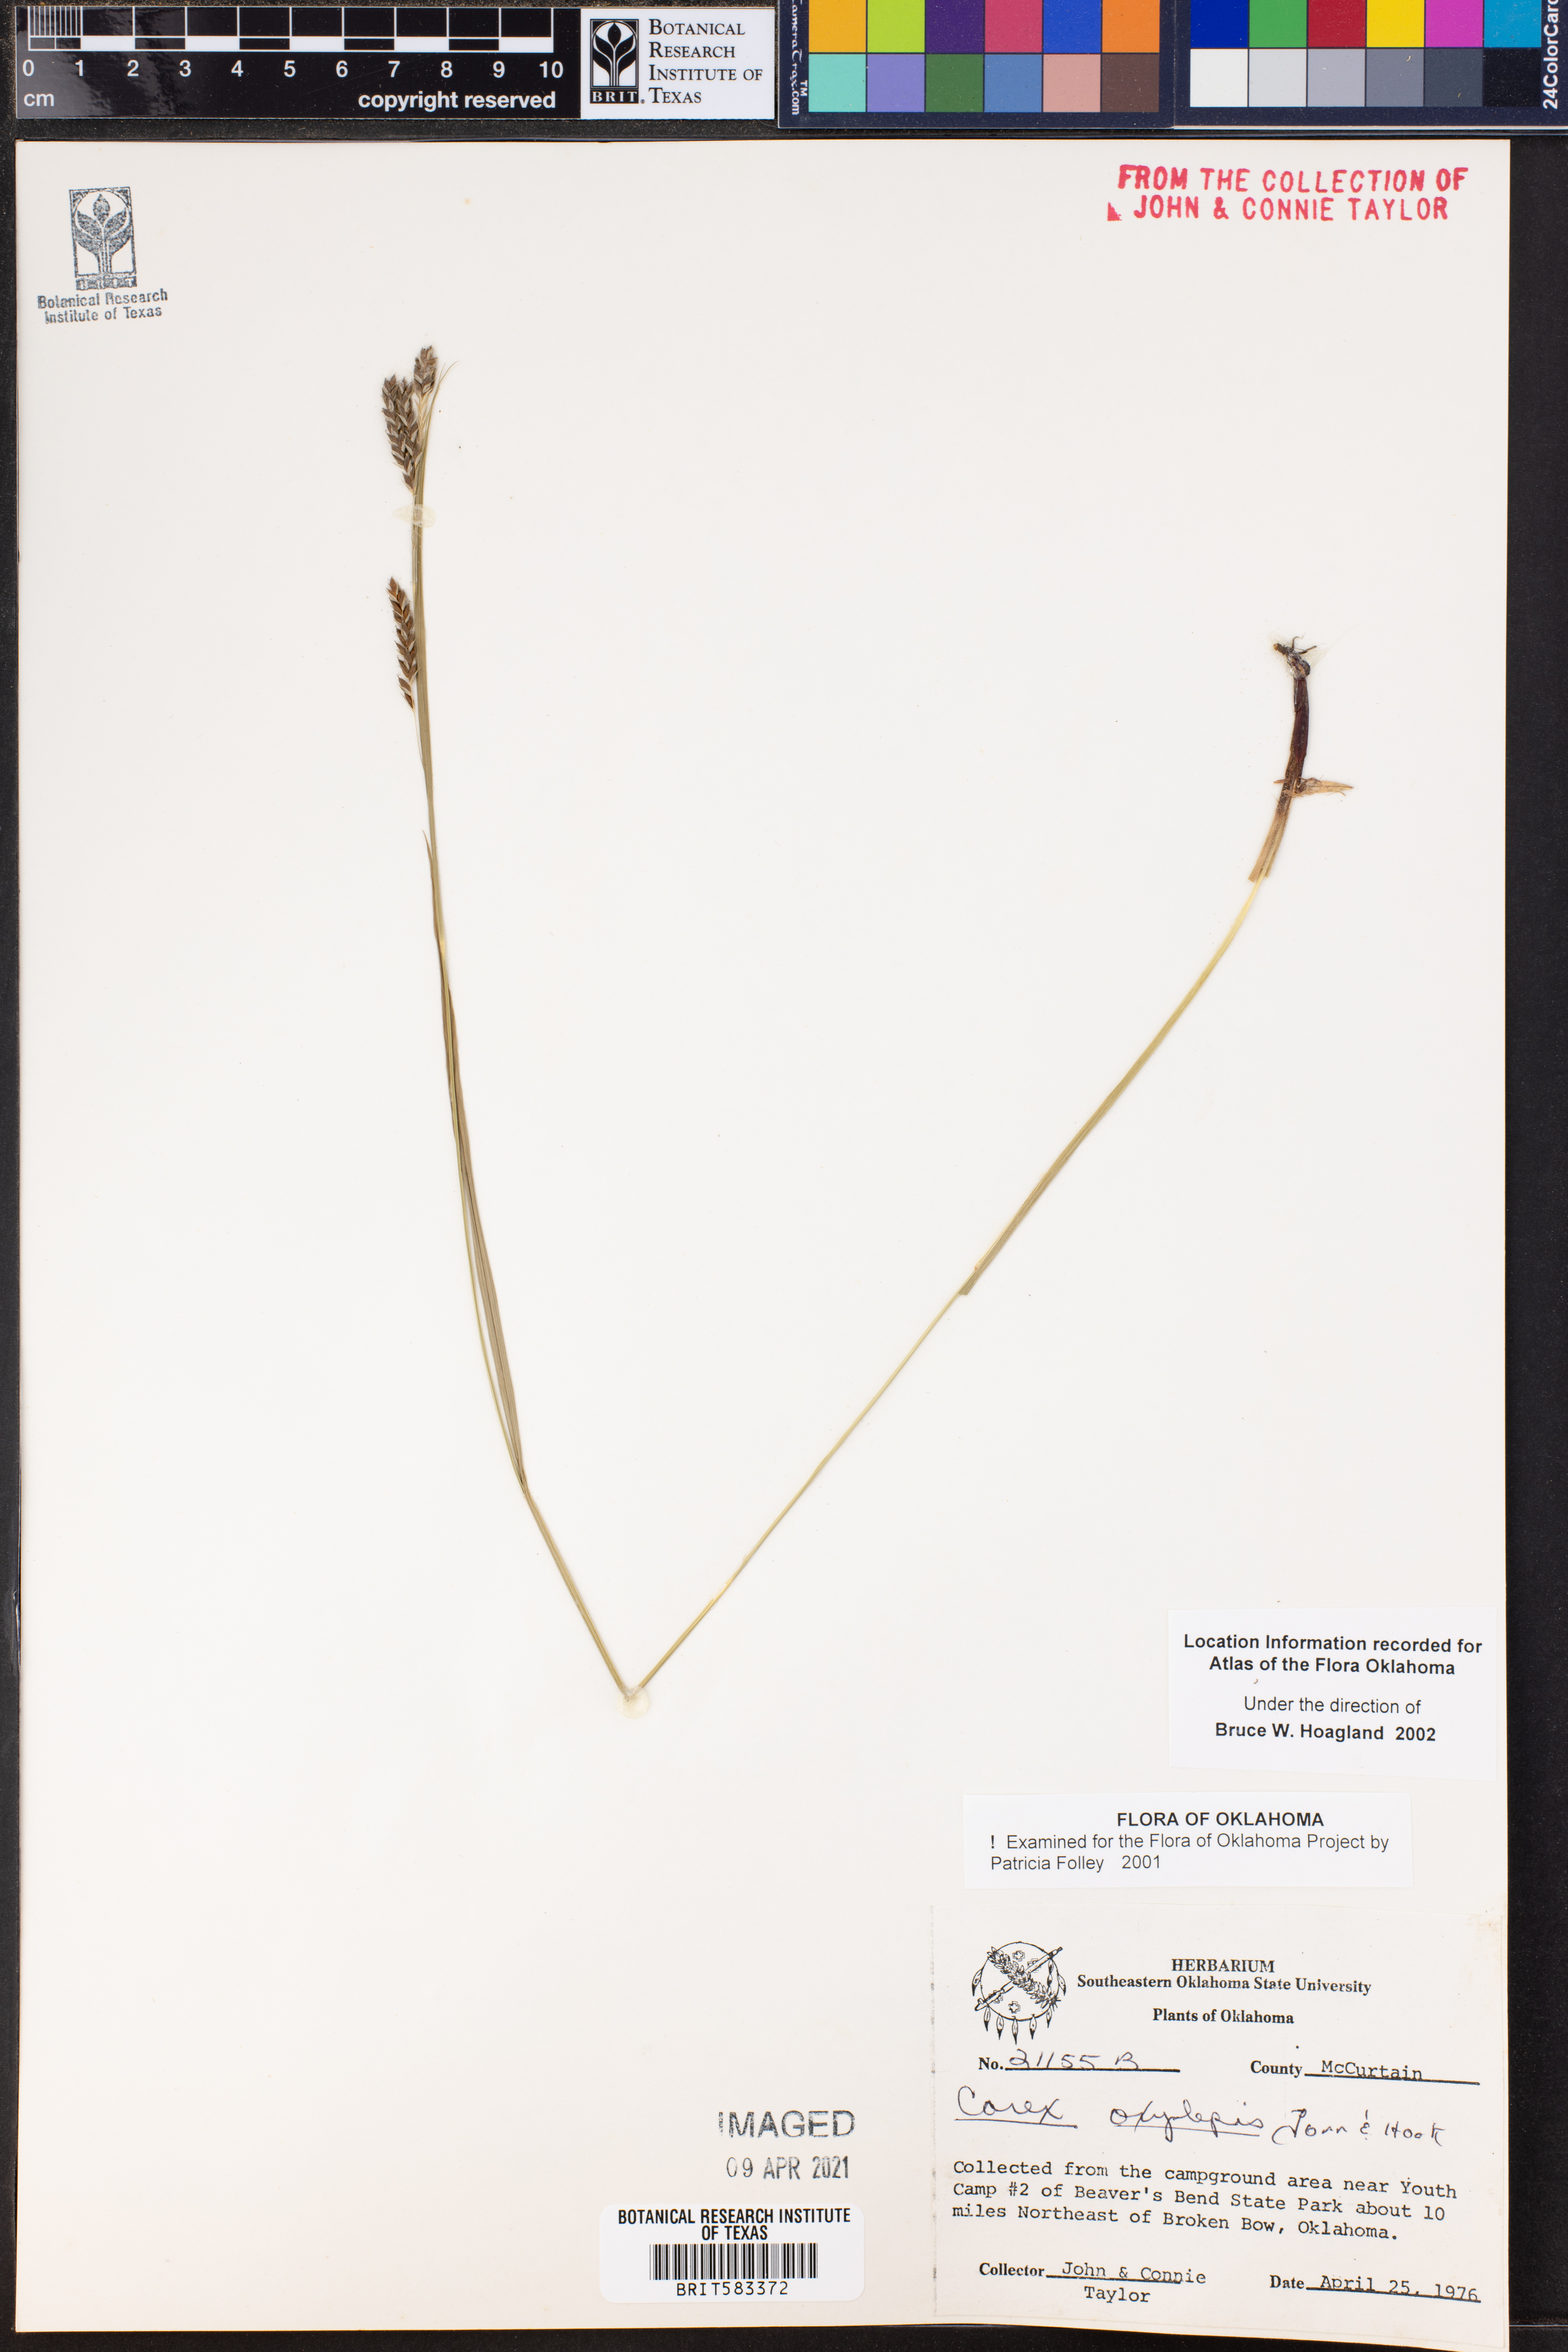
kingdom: Plantae
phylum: Tracheophyta
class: Liliopsida
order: Poales
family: Cyperaceae
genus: Carex
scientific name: Carex oxylepis
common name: Sharpscale sedge
